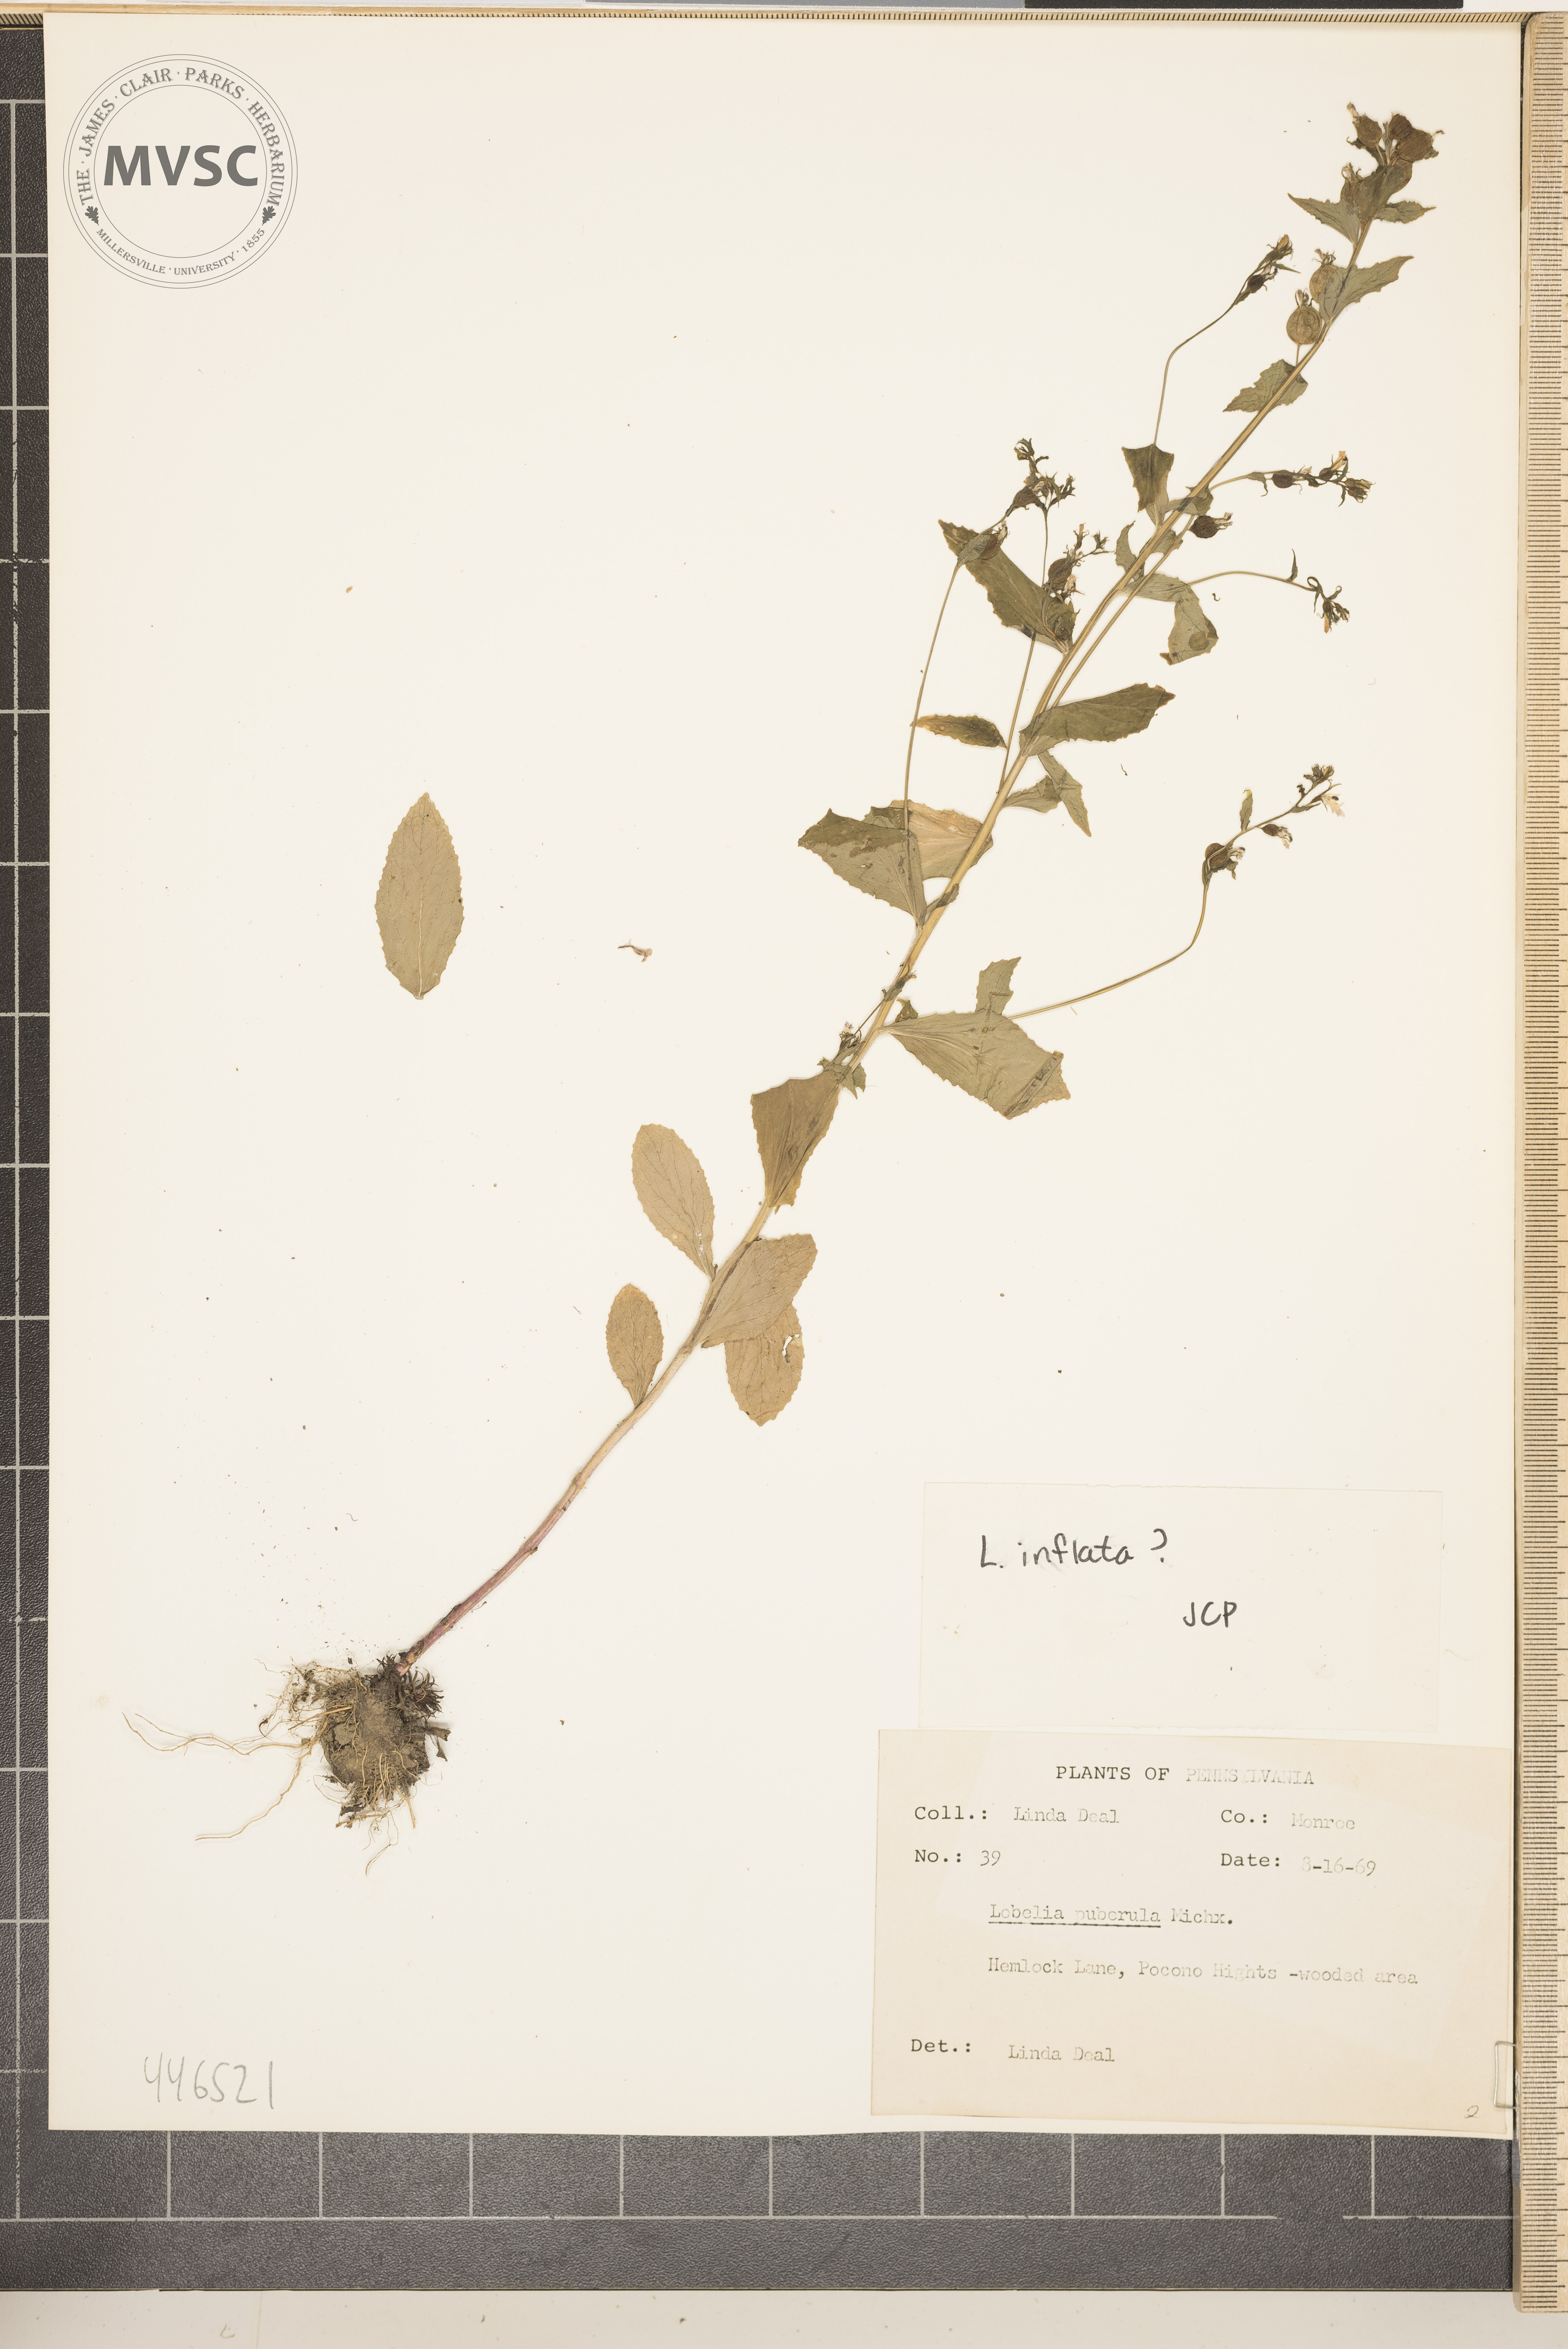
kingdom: Plantae
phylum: Tracheophyta
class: Magnoliopsida
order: Asterales
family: Campanulaceae
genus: Lobelia
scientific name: Lobelia inflata
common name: Indian tabacco
